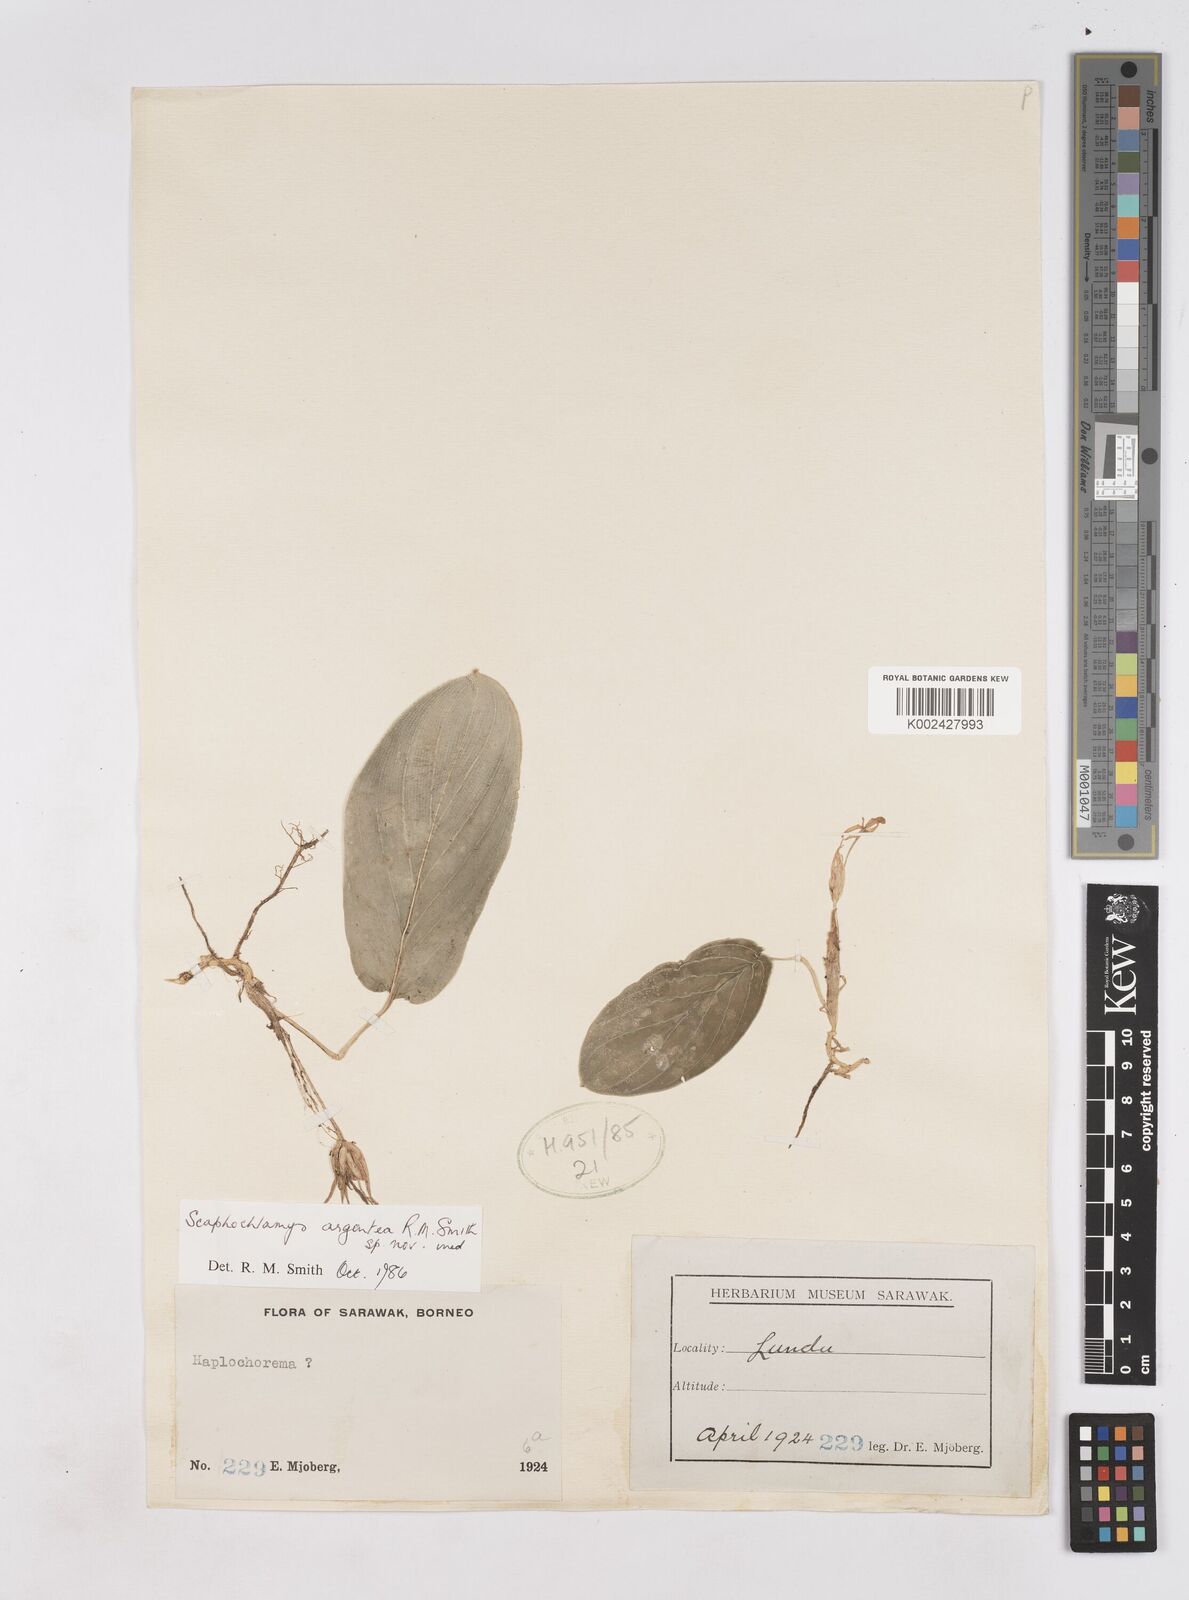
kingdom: Plantae
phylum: Tracheophyta
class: Liliopsida
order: Zingiberales
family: Zingiberaceae
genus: Scaphochlamys
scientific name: Scaphochlamys argentea
